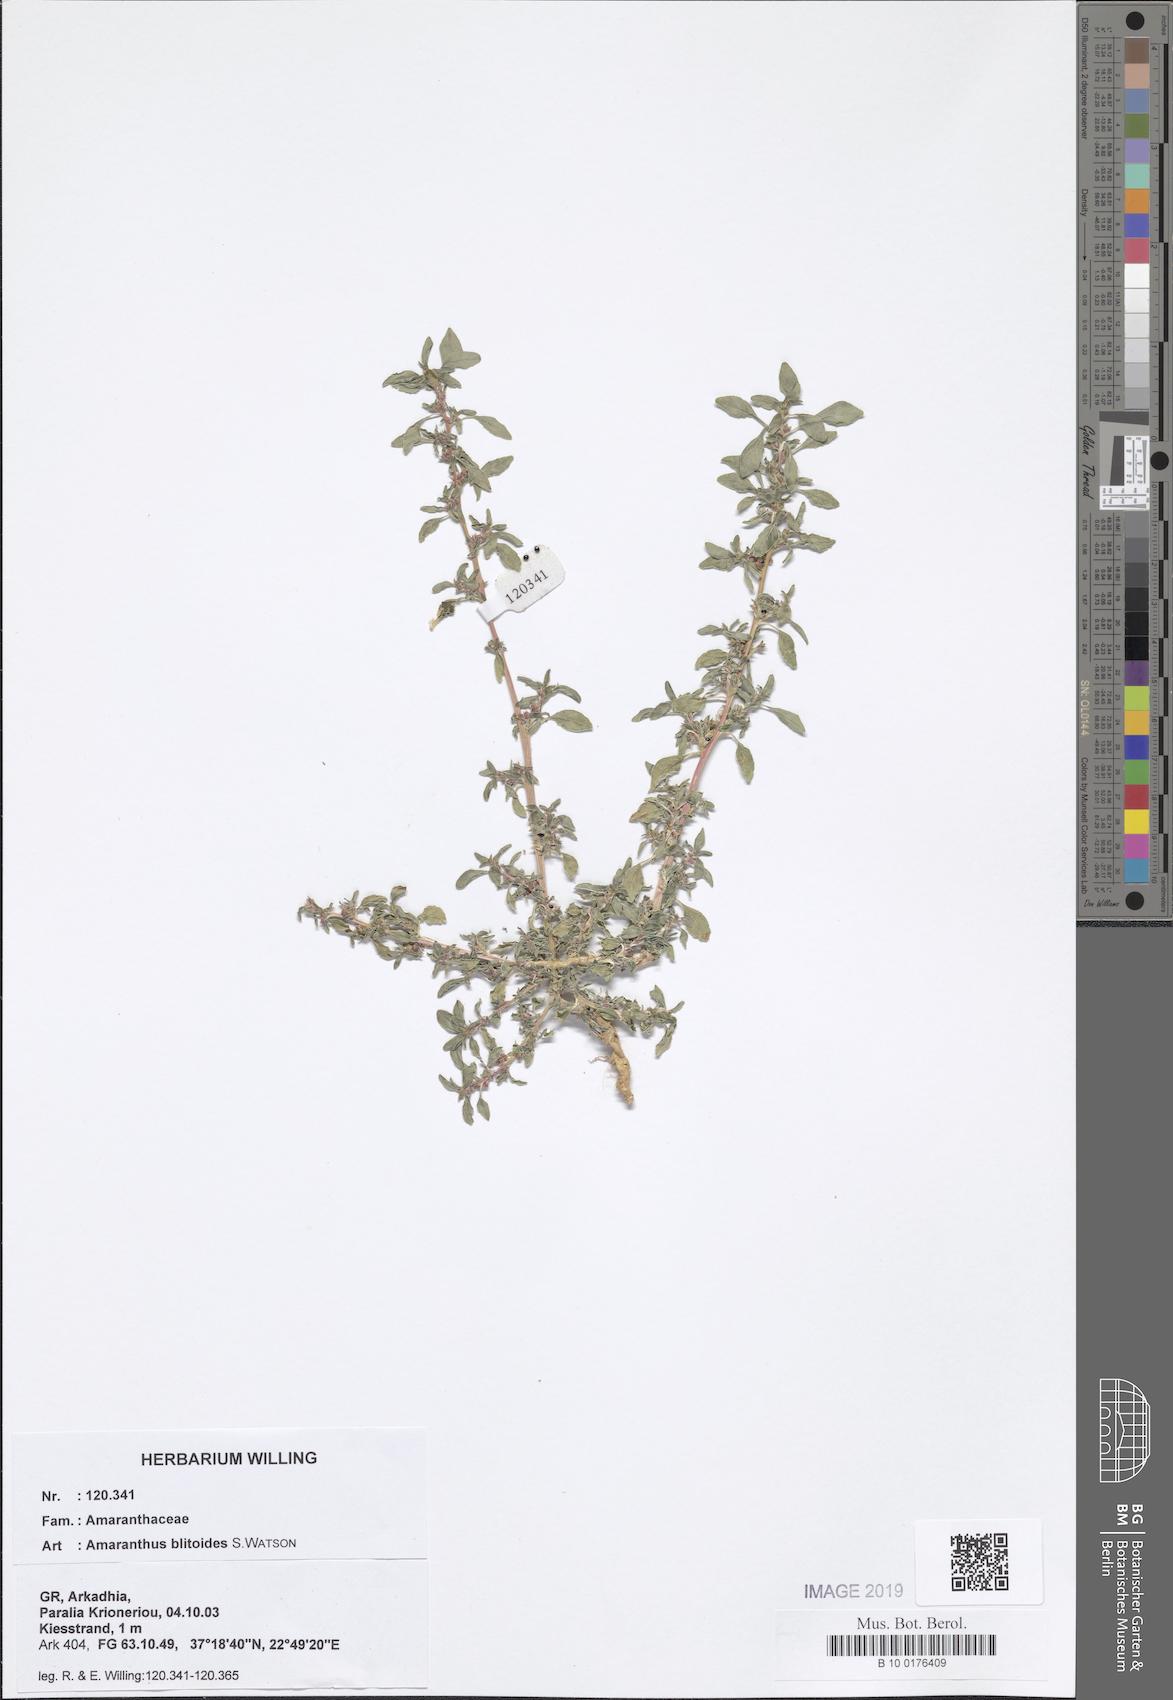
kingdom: Plantae
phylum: Tracheophyta
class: Magnoliopsida
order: Caryophyllales
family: Amaranthaceae
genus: Amaranthus
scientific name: Amaranthus blitoides
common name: Prostrate pigweed
